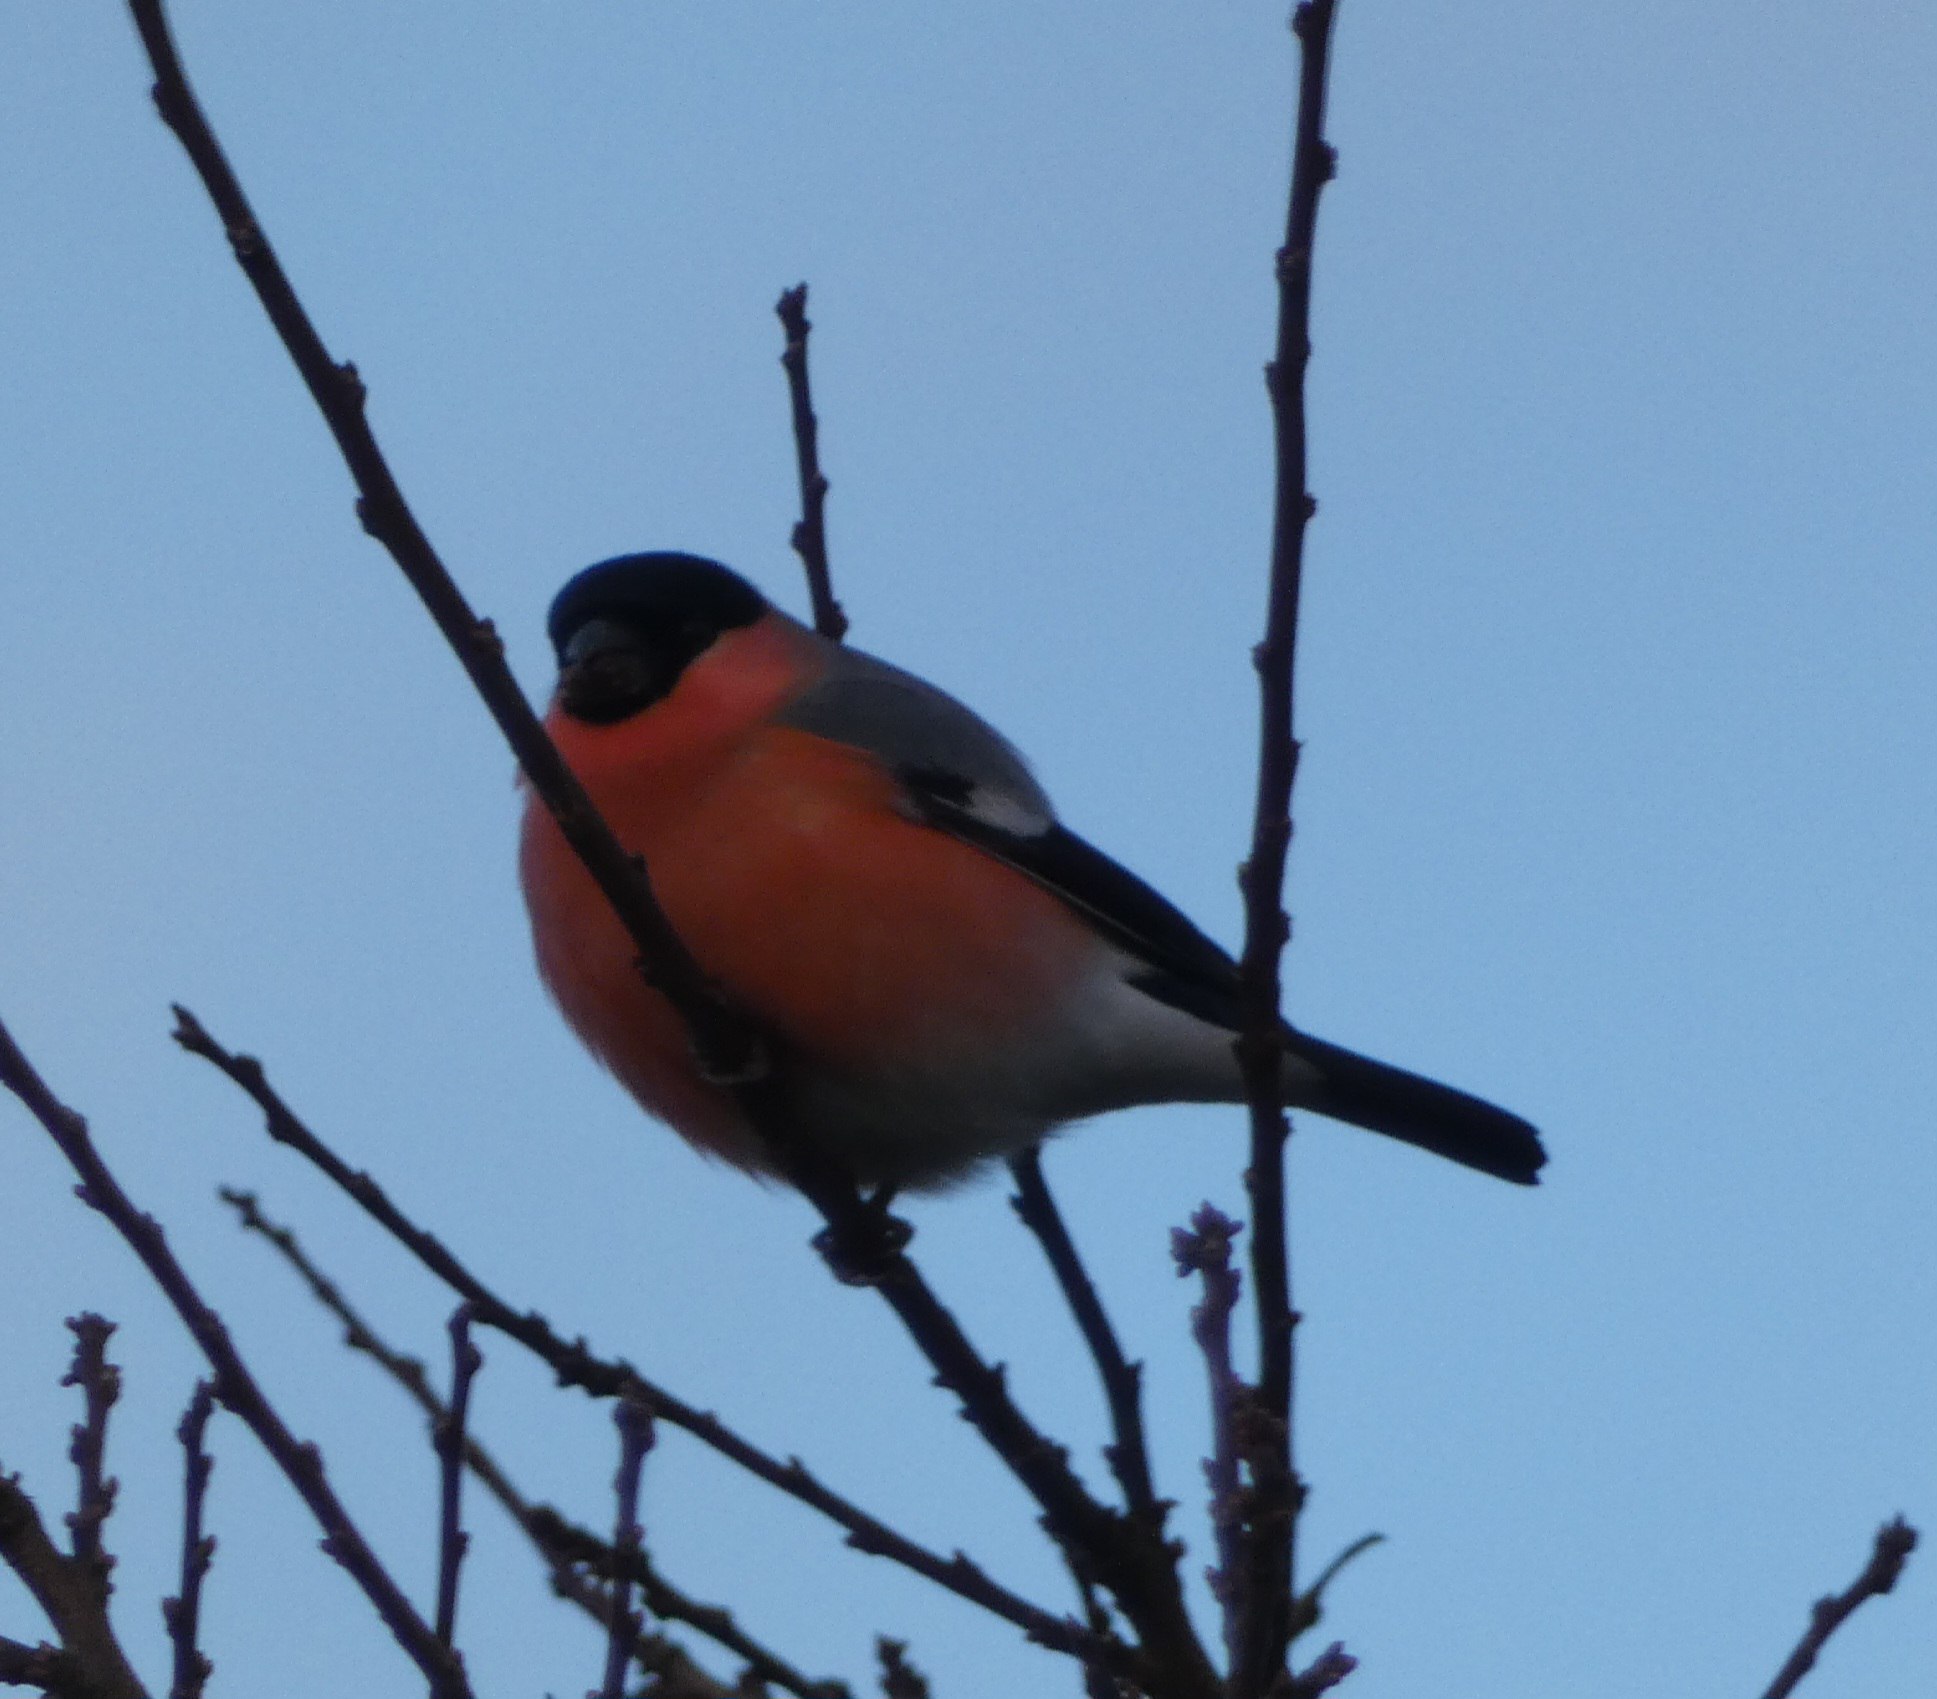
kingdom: Animalia
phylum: Chordata
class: Aves
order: Passeriformes
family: Fringillidae
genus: Pyrrhula
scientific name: Pyrrhula pyrrhula
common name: Dompap
